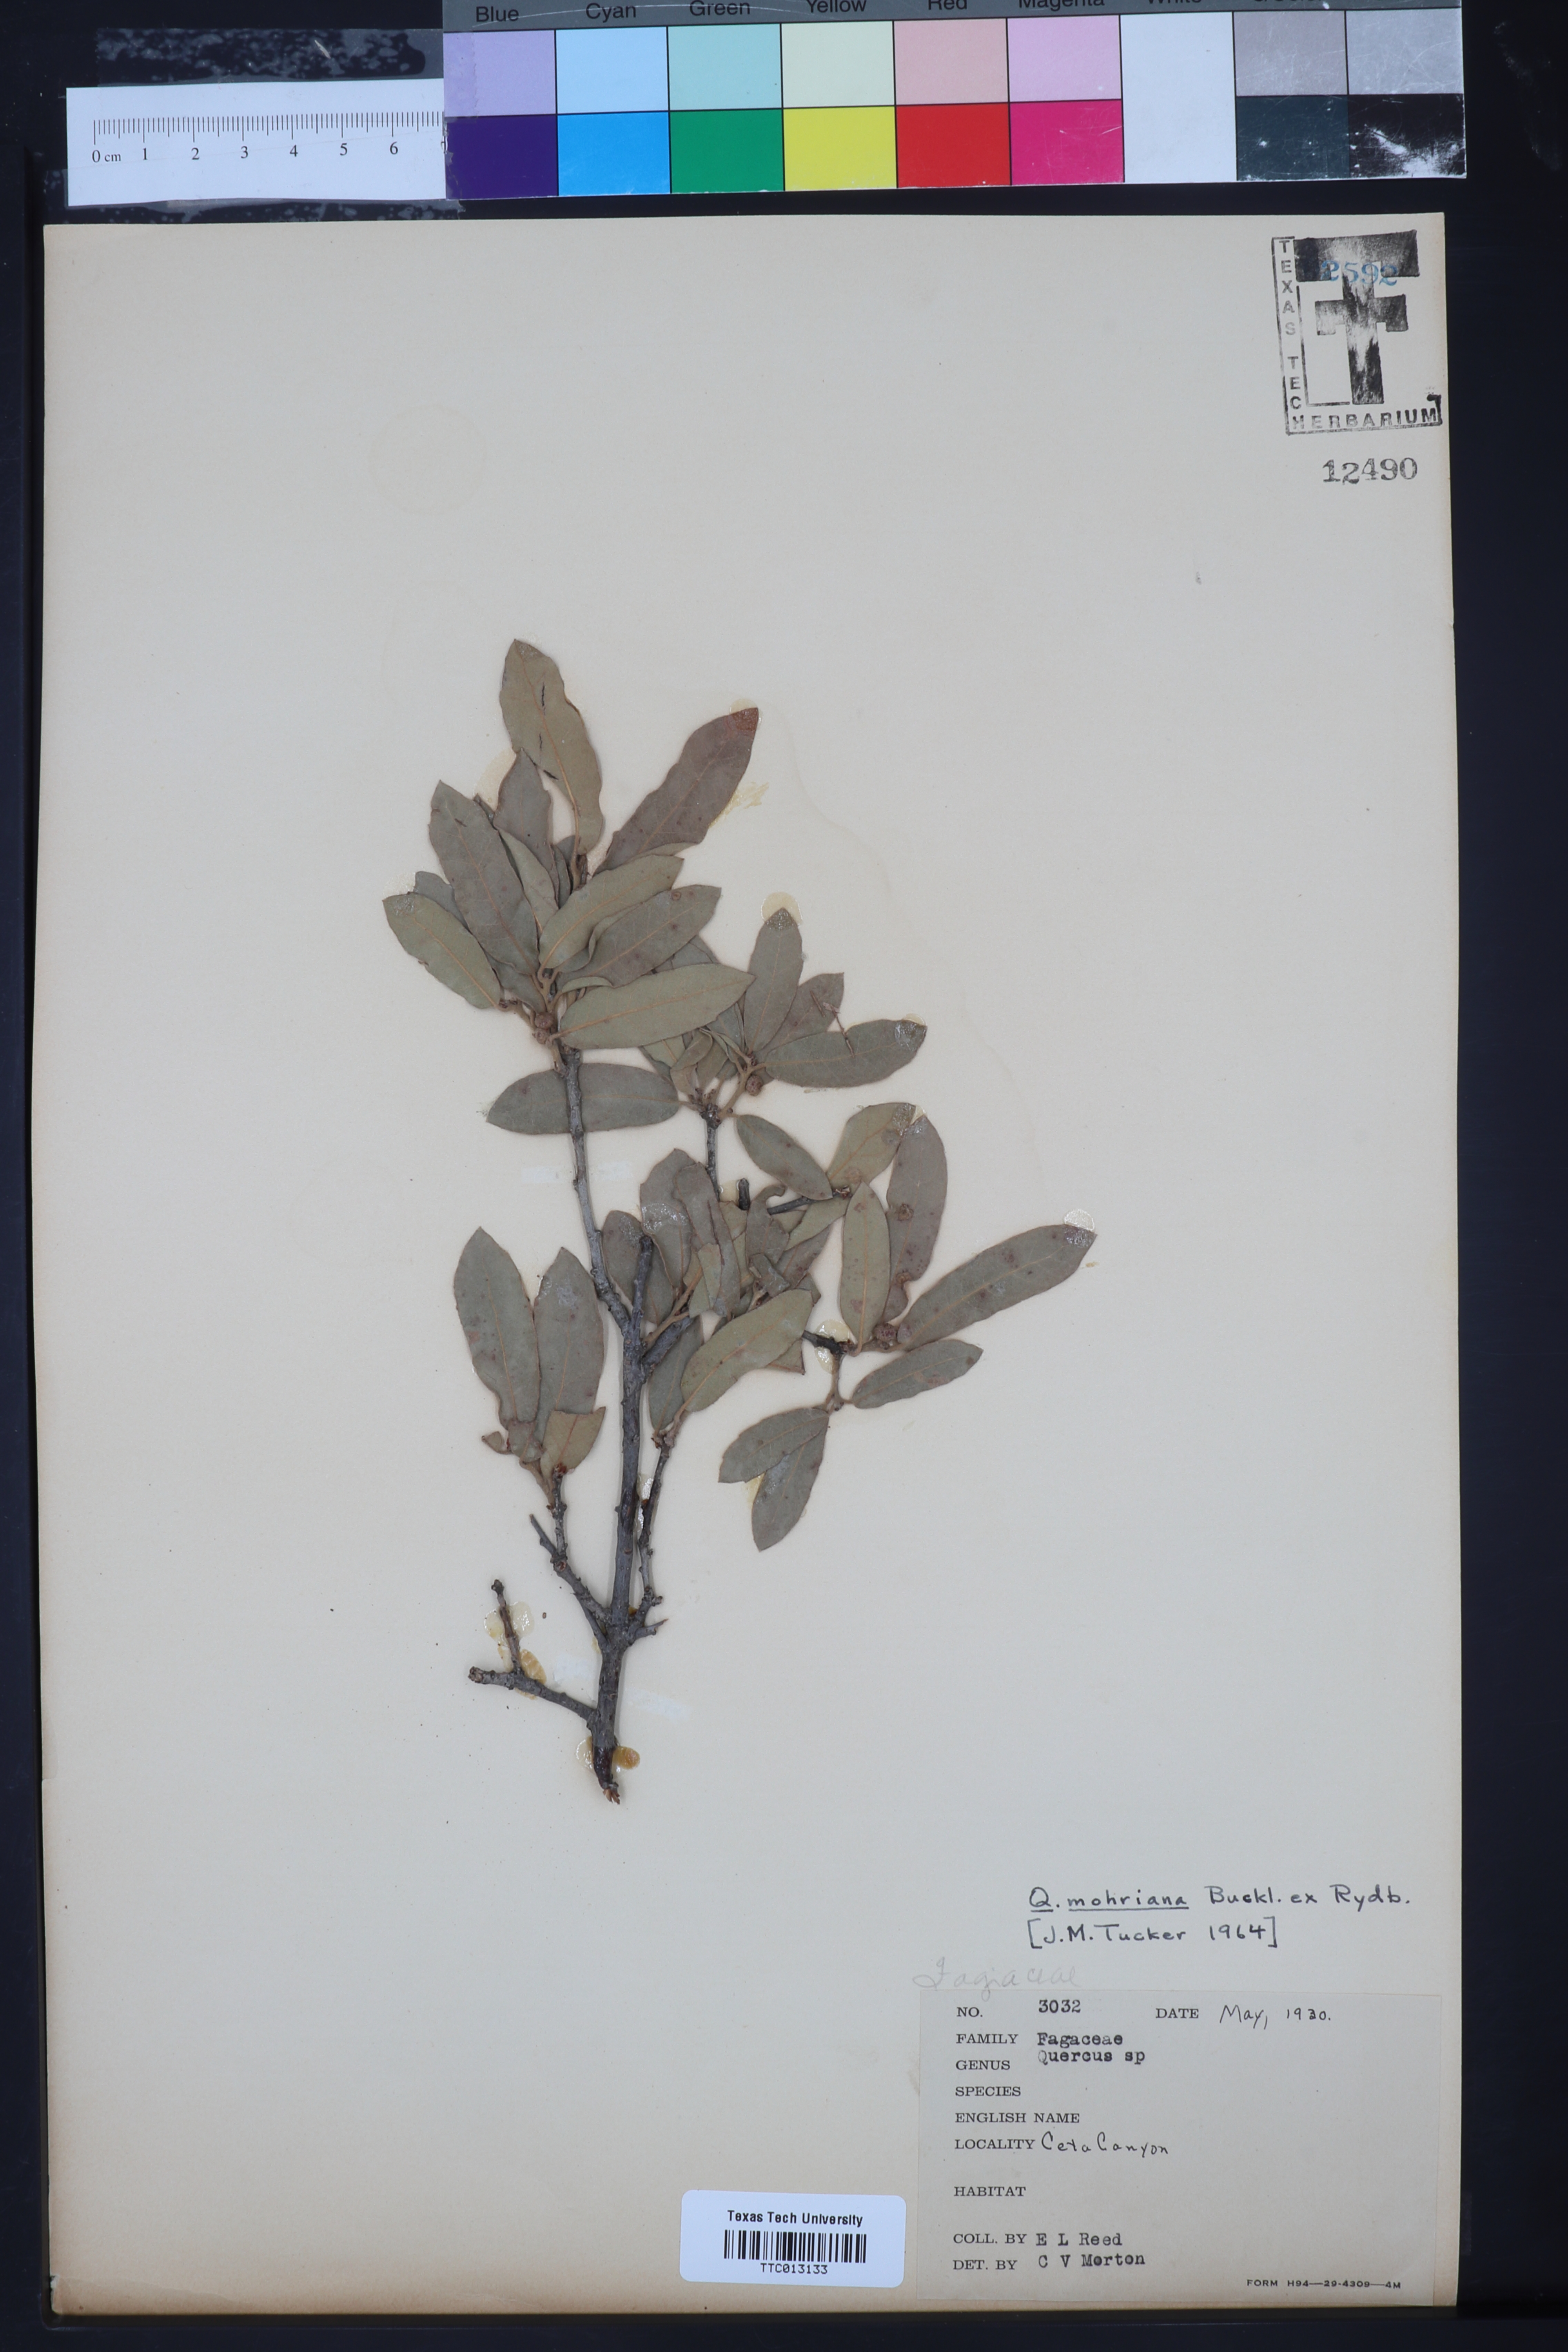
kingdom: Plantae
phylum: Tracheophyta
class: Magnoliopsida
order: Fagales
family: Fagaceae
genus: Quercus
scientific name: Quercus mohriana
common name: Mohr oak
